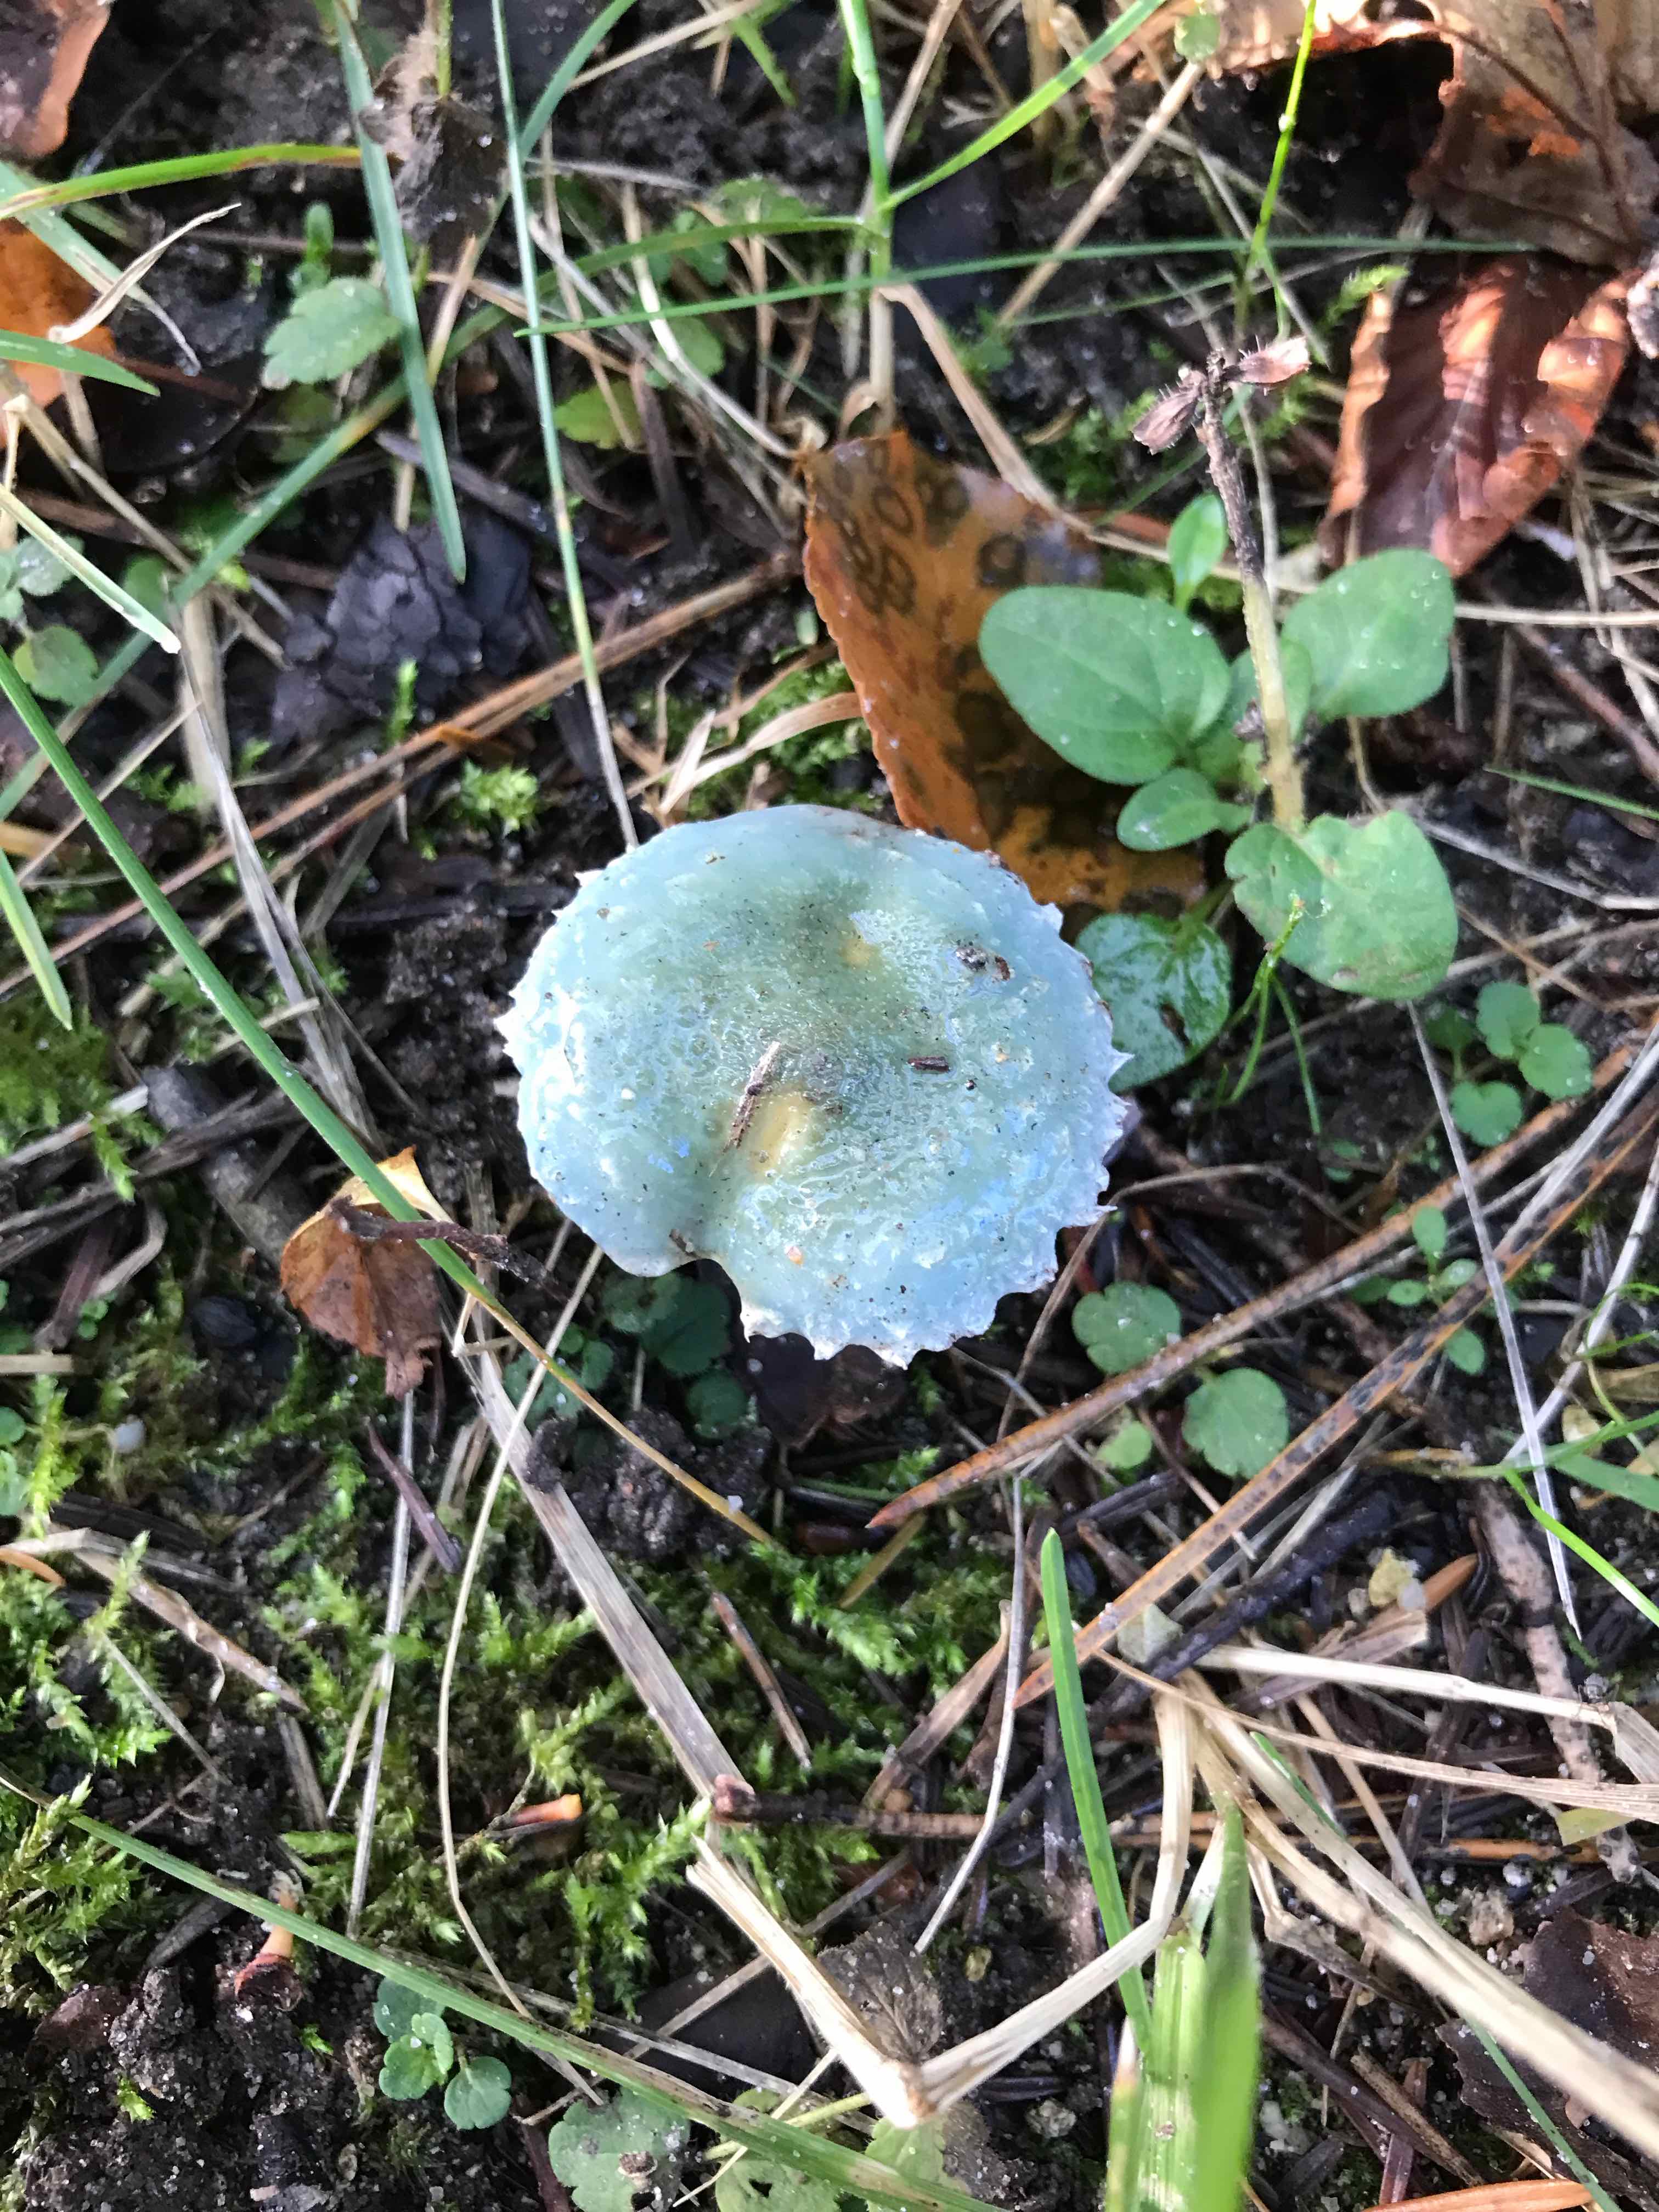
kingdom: Fungi
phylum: Basidiomycota
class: Agaricomycetes
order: Agaricales
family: Strophariaceae
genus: Stropharia
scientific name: Stropharia
